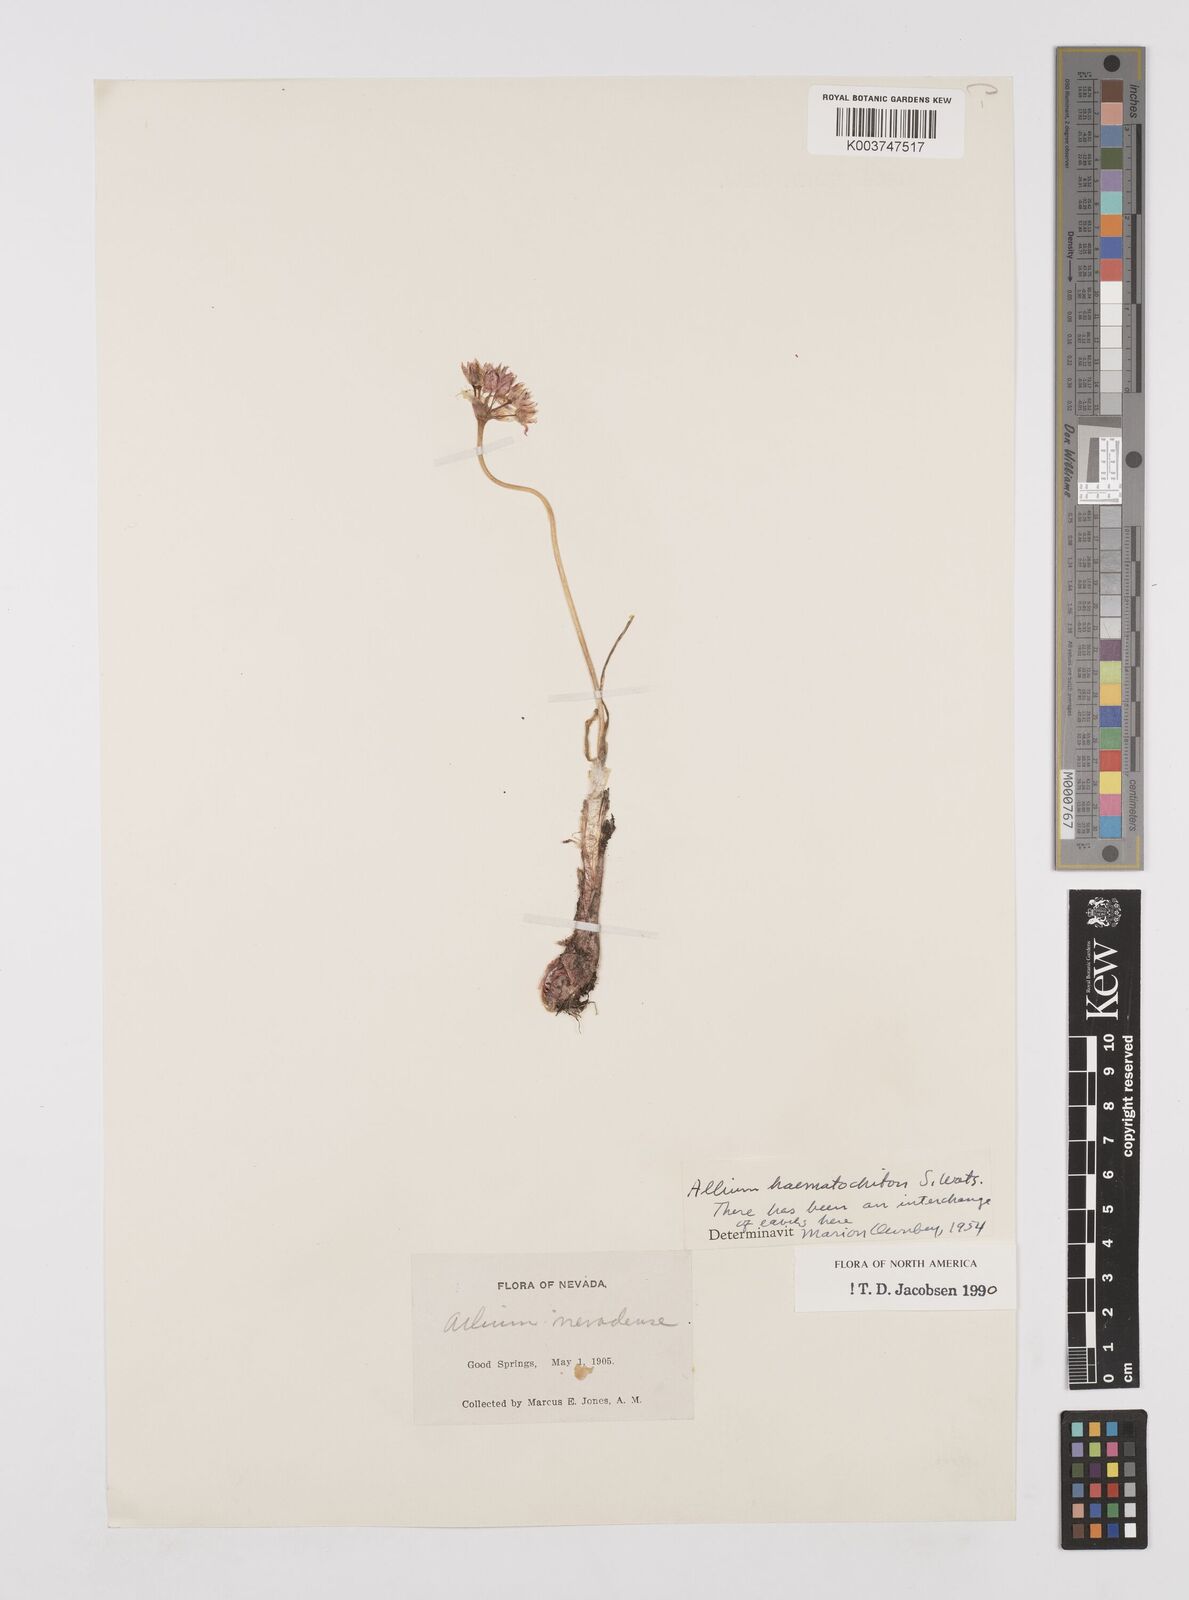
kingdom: Plantae
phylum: Tracheophyta
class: Liliopsida
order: Asparagales
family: Amaryllidaceae
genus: Allium
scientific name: Allium haematochiton
